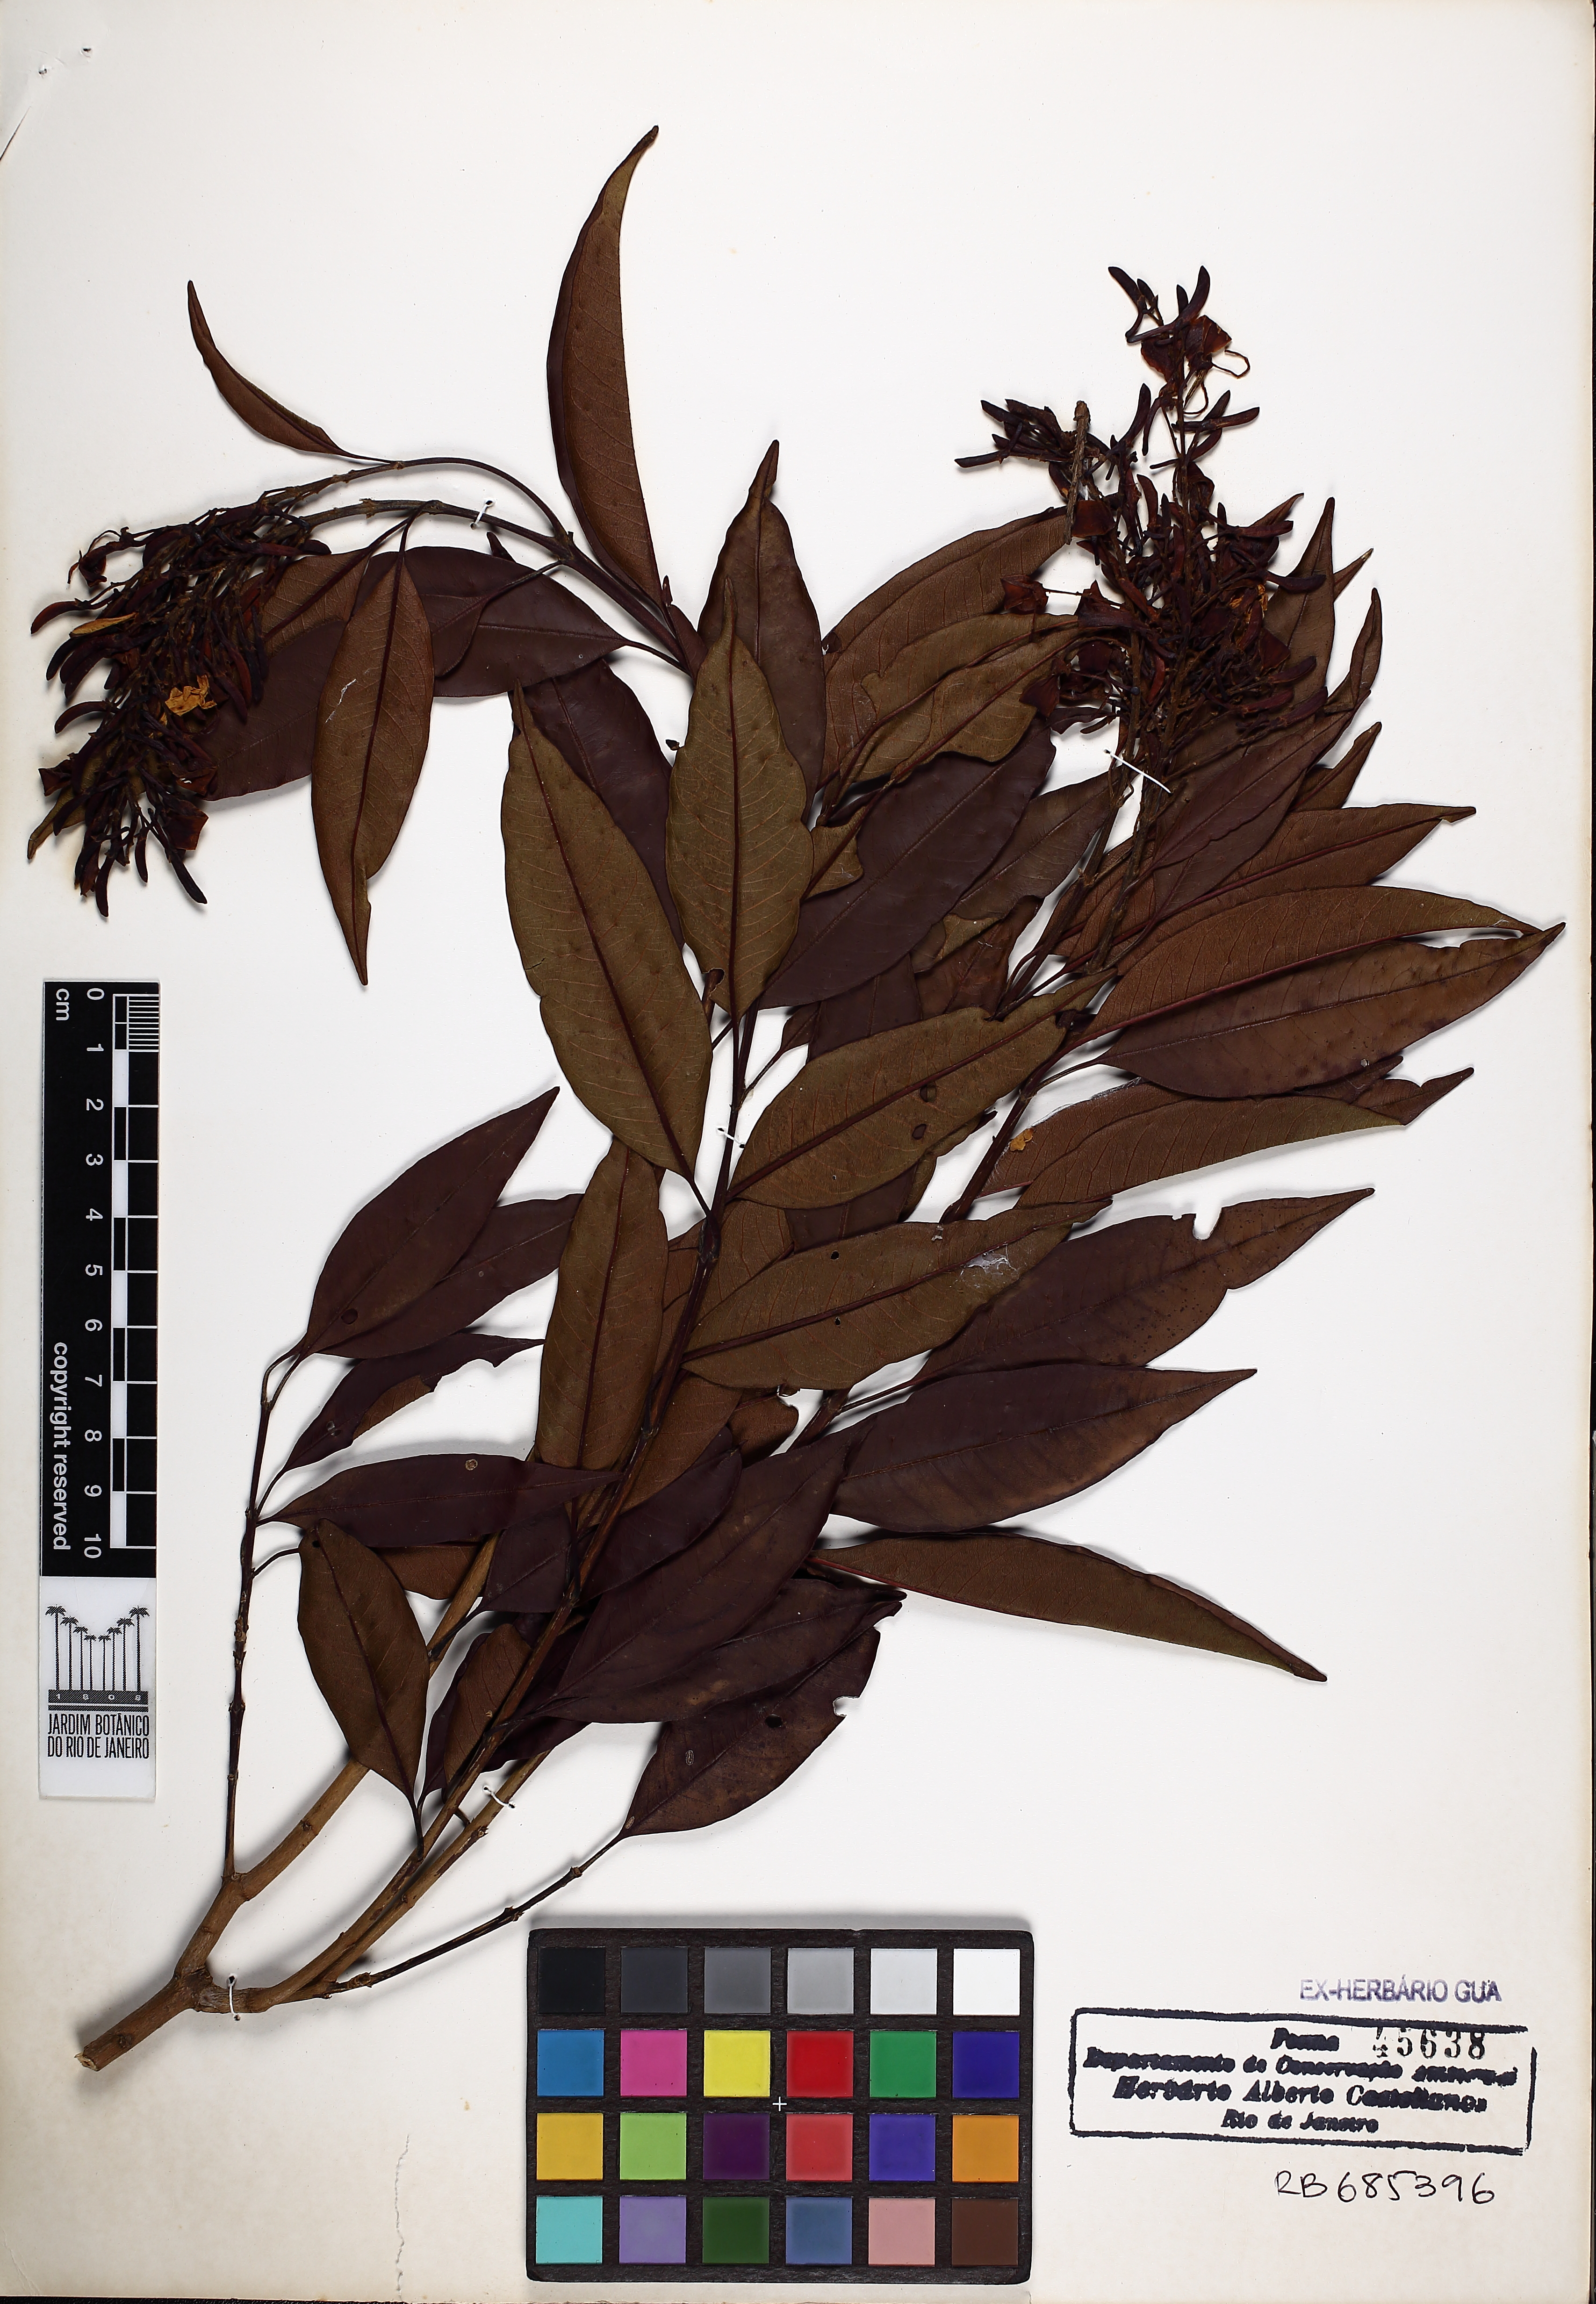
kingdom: Plantae
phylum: Tracheophyta
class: Magnoliopsida
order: Myrtales
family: Vochysiaceae
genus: Vochysia
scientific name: Vochysia laurifolia
